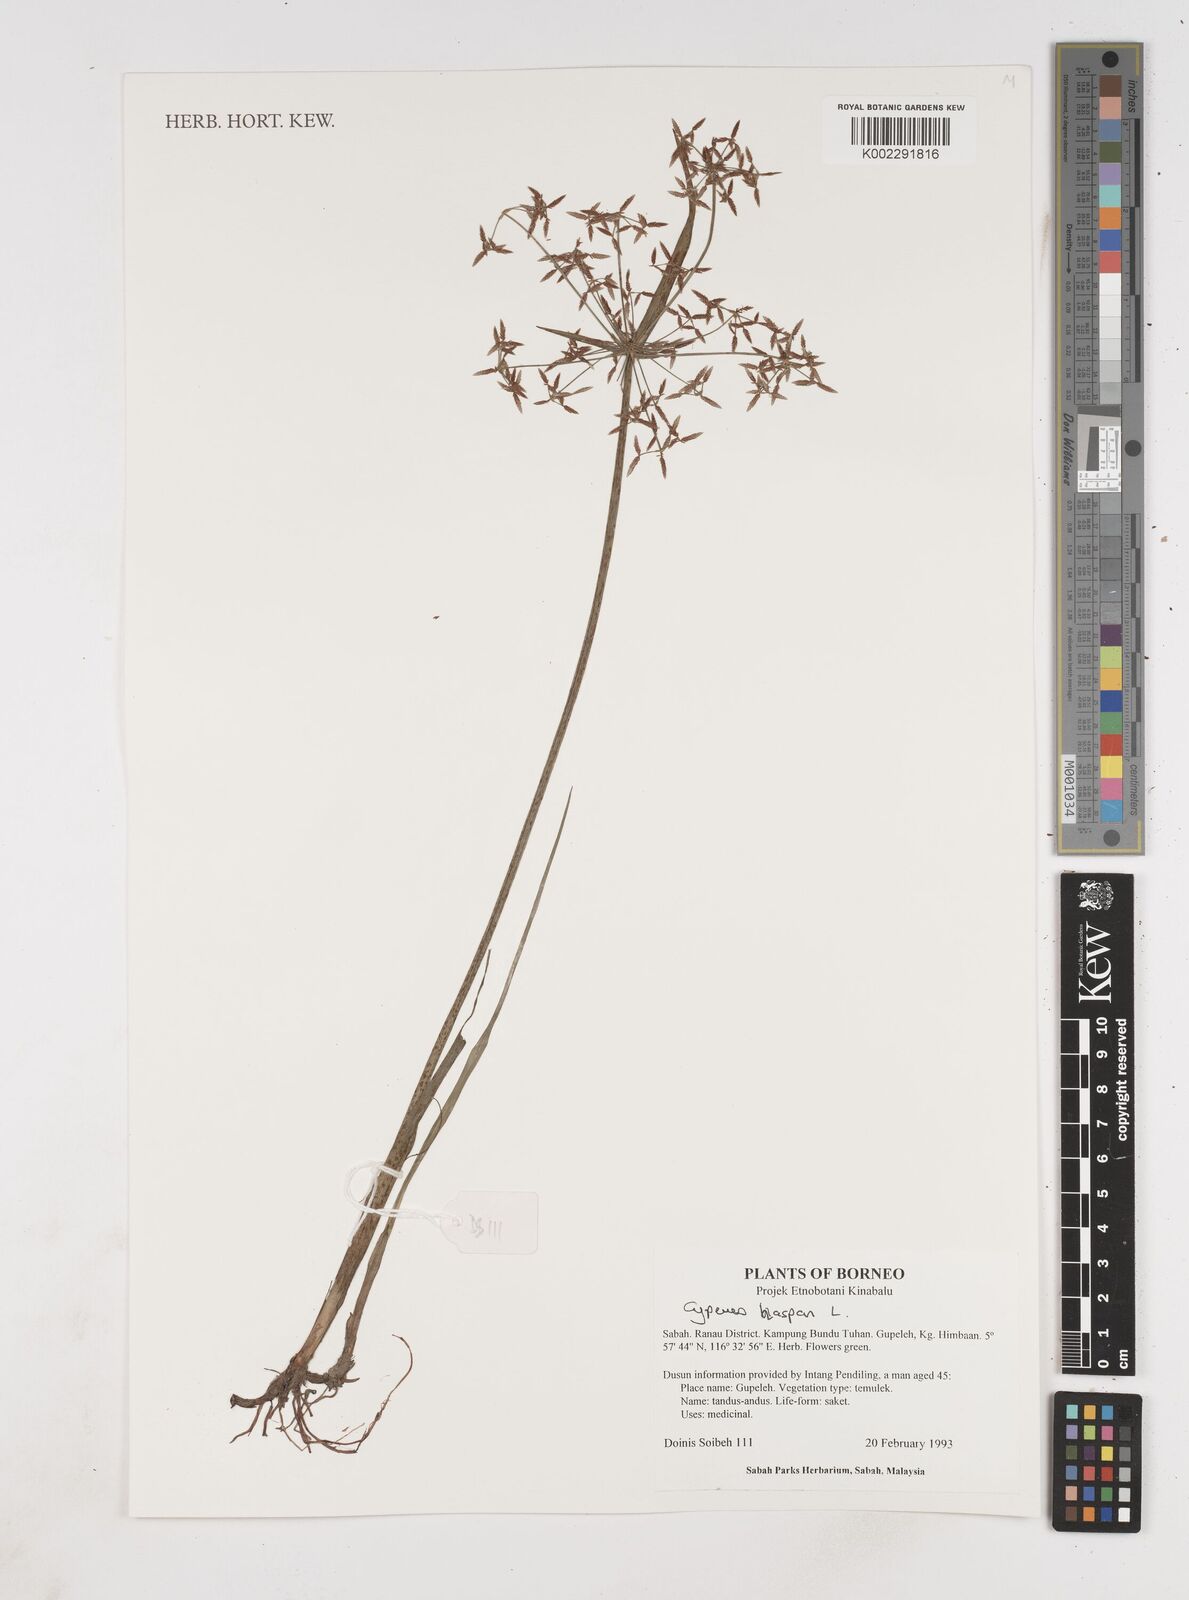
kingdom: Plantae
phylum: Tracheophyta
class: Liliopsida
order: Poales
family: Cyperaceae
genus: Cyperus
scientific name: Cyperus haspan
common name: Haspan flatsedge
